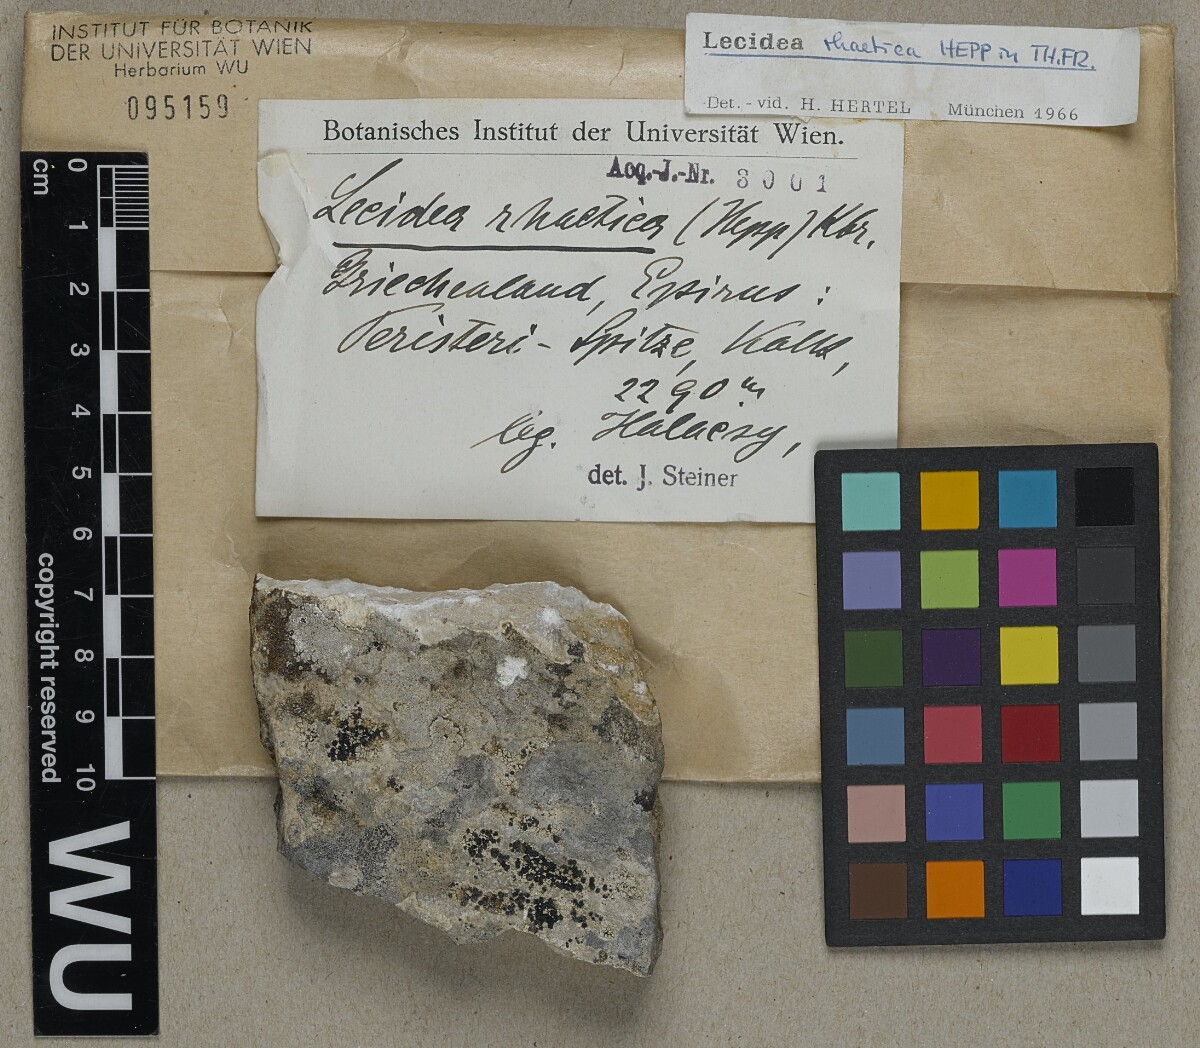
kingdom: Fungi
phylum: Ascomycota
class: Lecanoromycetes
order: Lecideales
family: Lecideaceae
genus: Farnoldia
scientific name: Farnoldia micropsis
